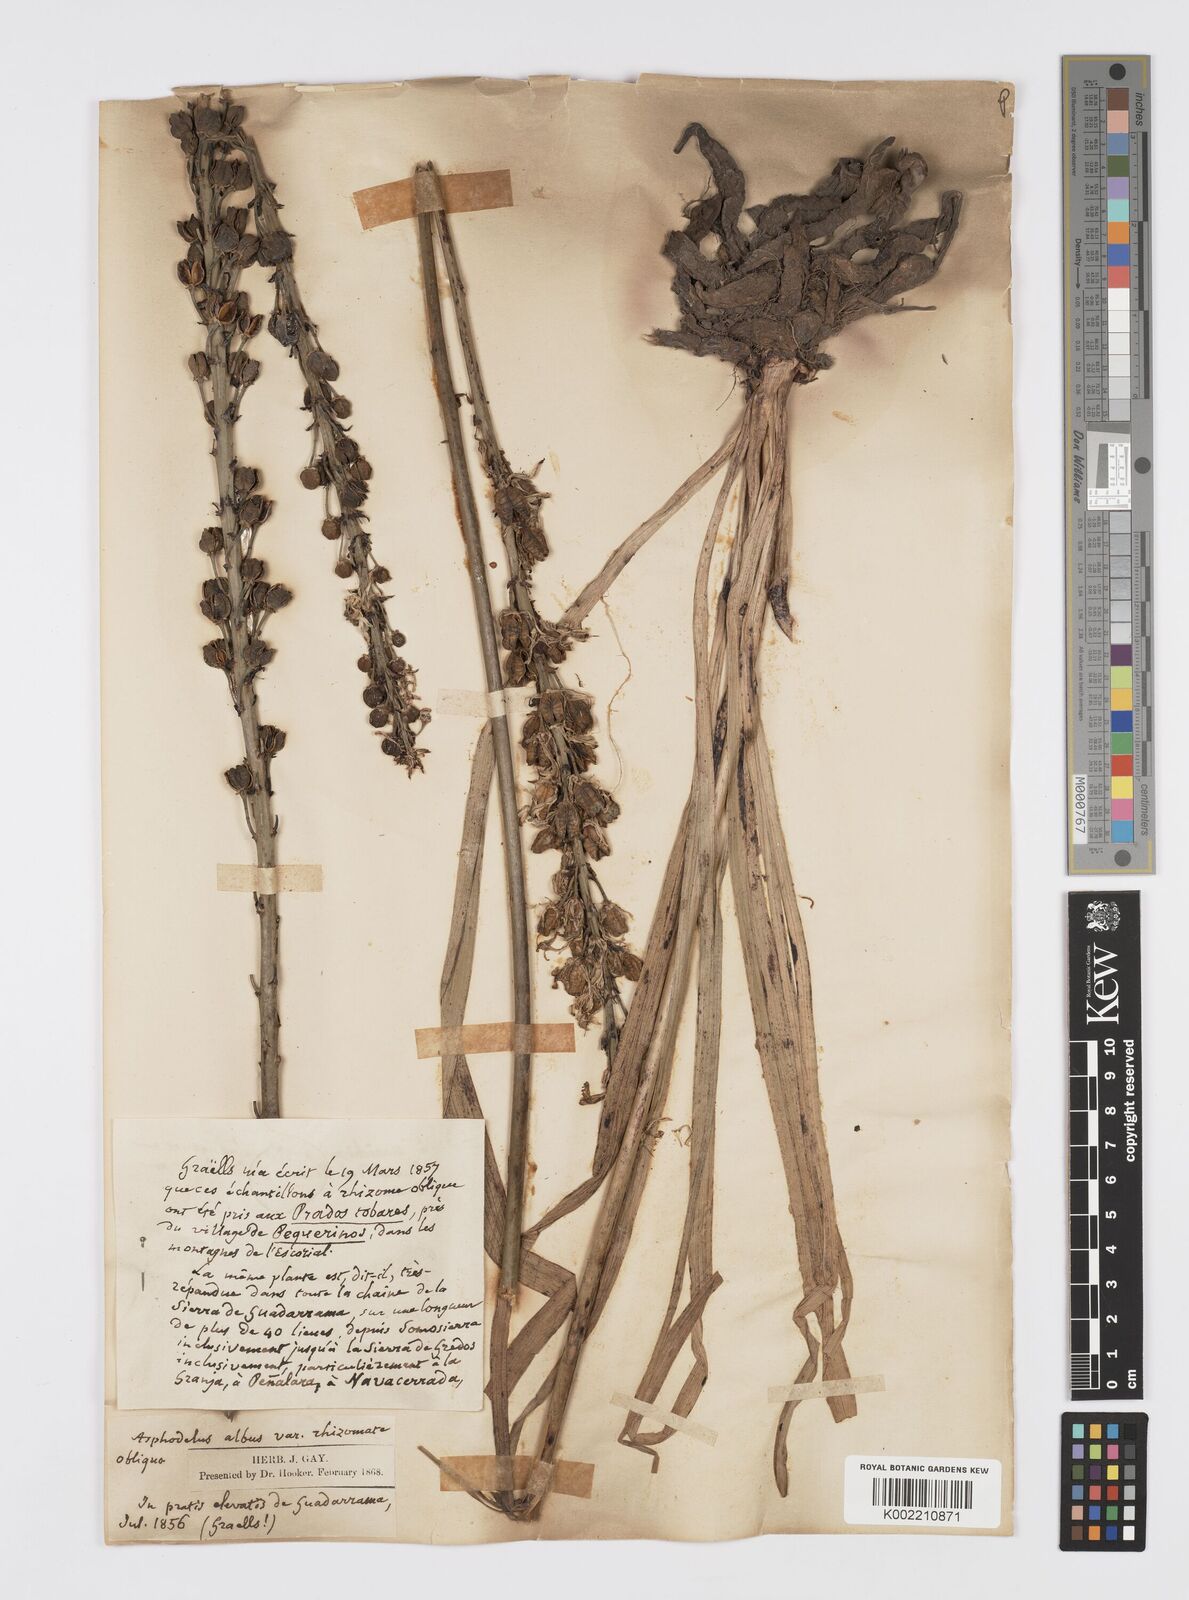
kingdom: Plantae
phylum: Tracheophyta
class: Liliopsida
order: Asparagales
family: Asphodelaceae
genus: Asphodelus
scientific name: Asphodelus albus
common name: White asphodel
